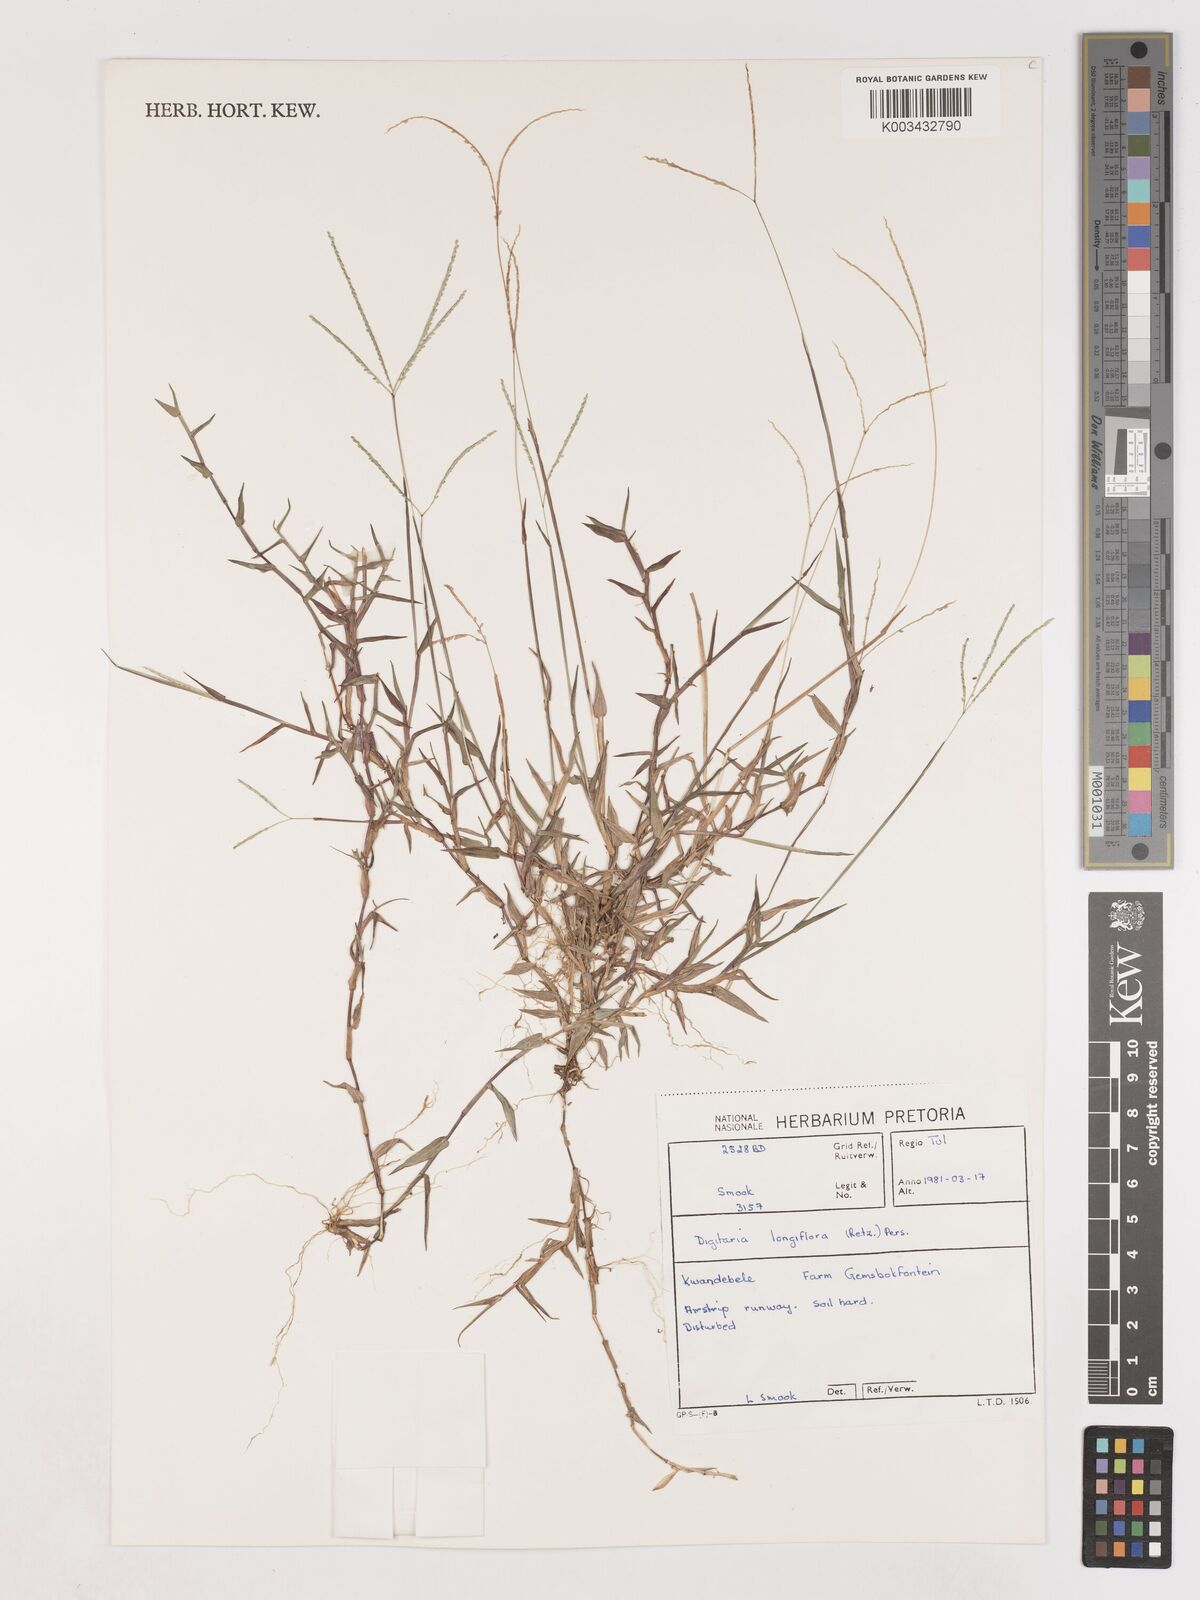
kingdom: Plantae
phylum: Tracheophyta
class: Liliopsida
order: Poales
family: Poaceae
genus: Digitaria
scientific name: Digitaria longiflora
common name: Wire crabgrass
